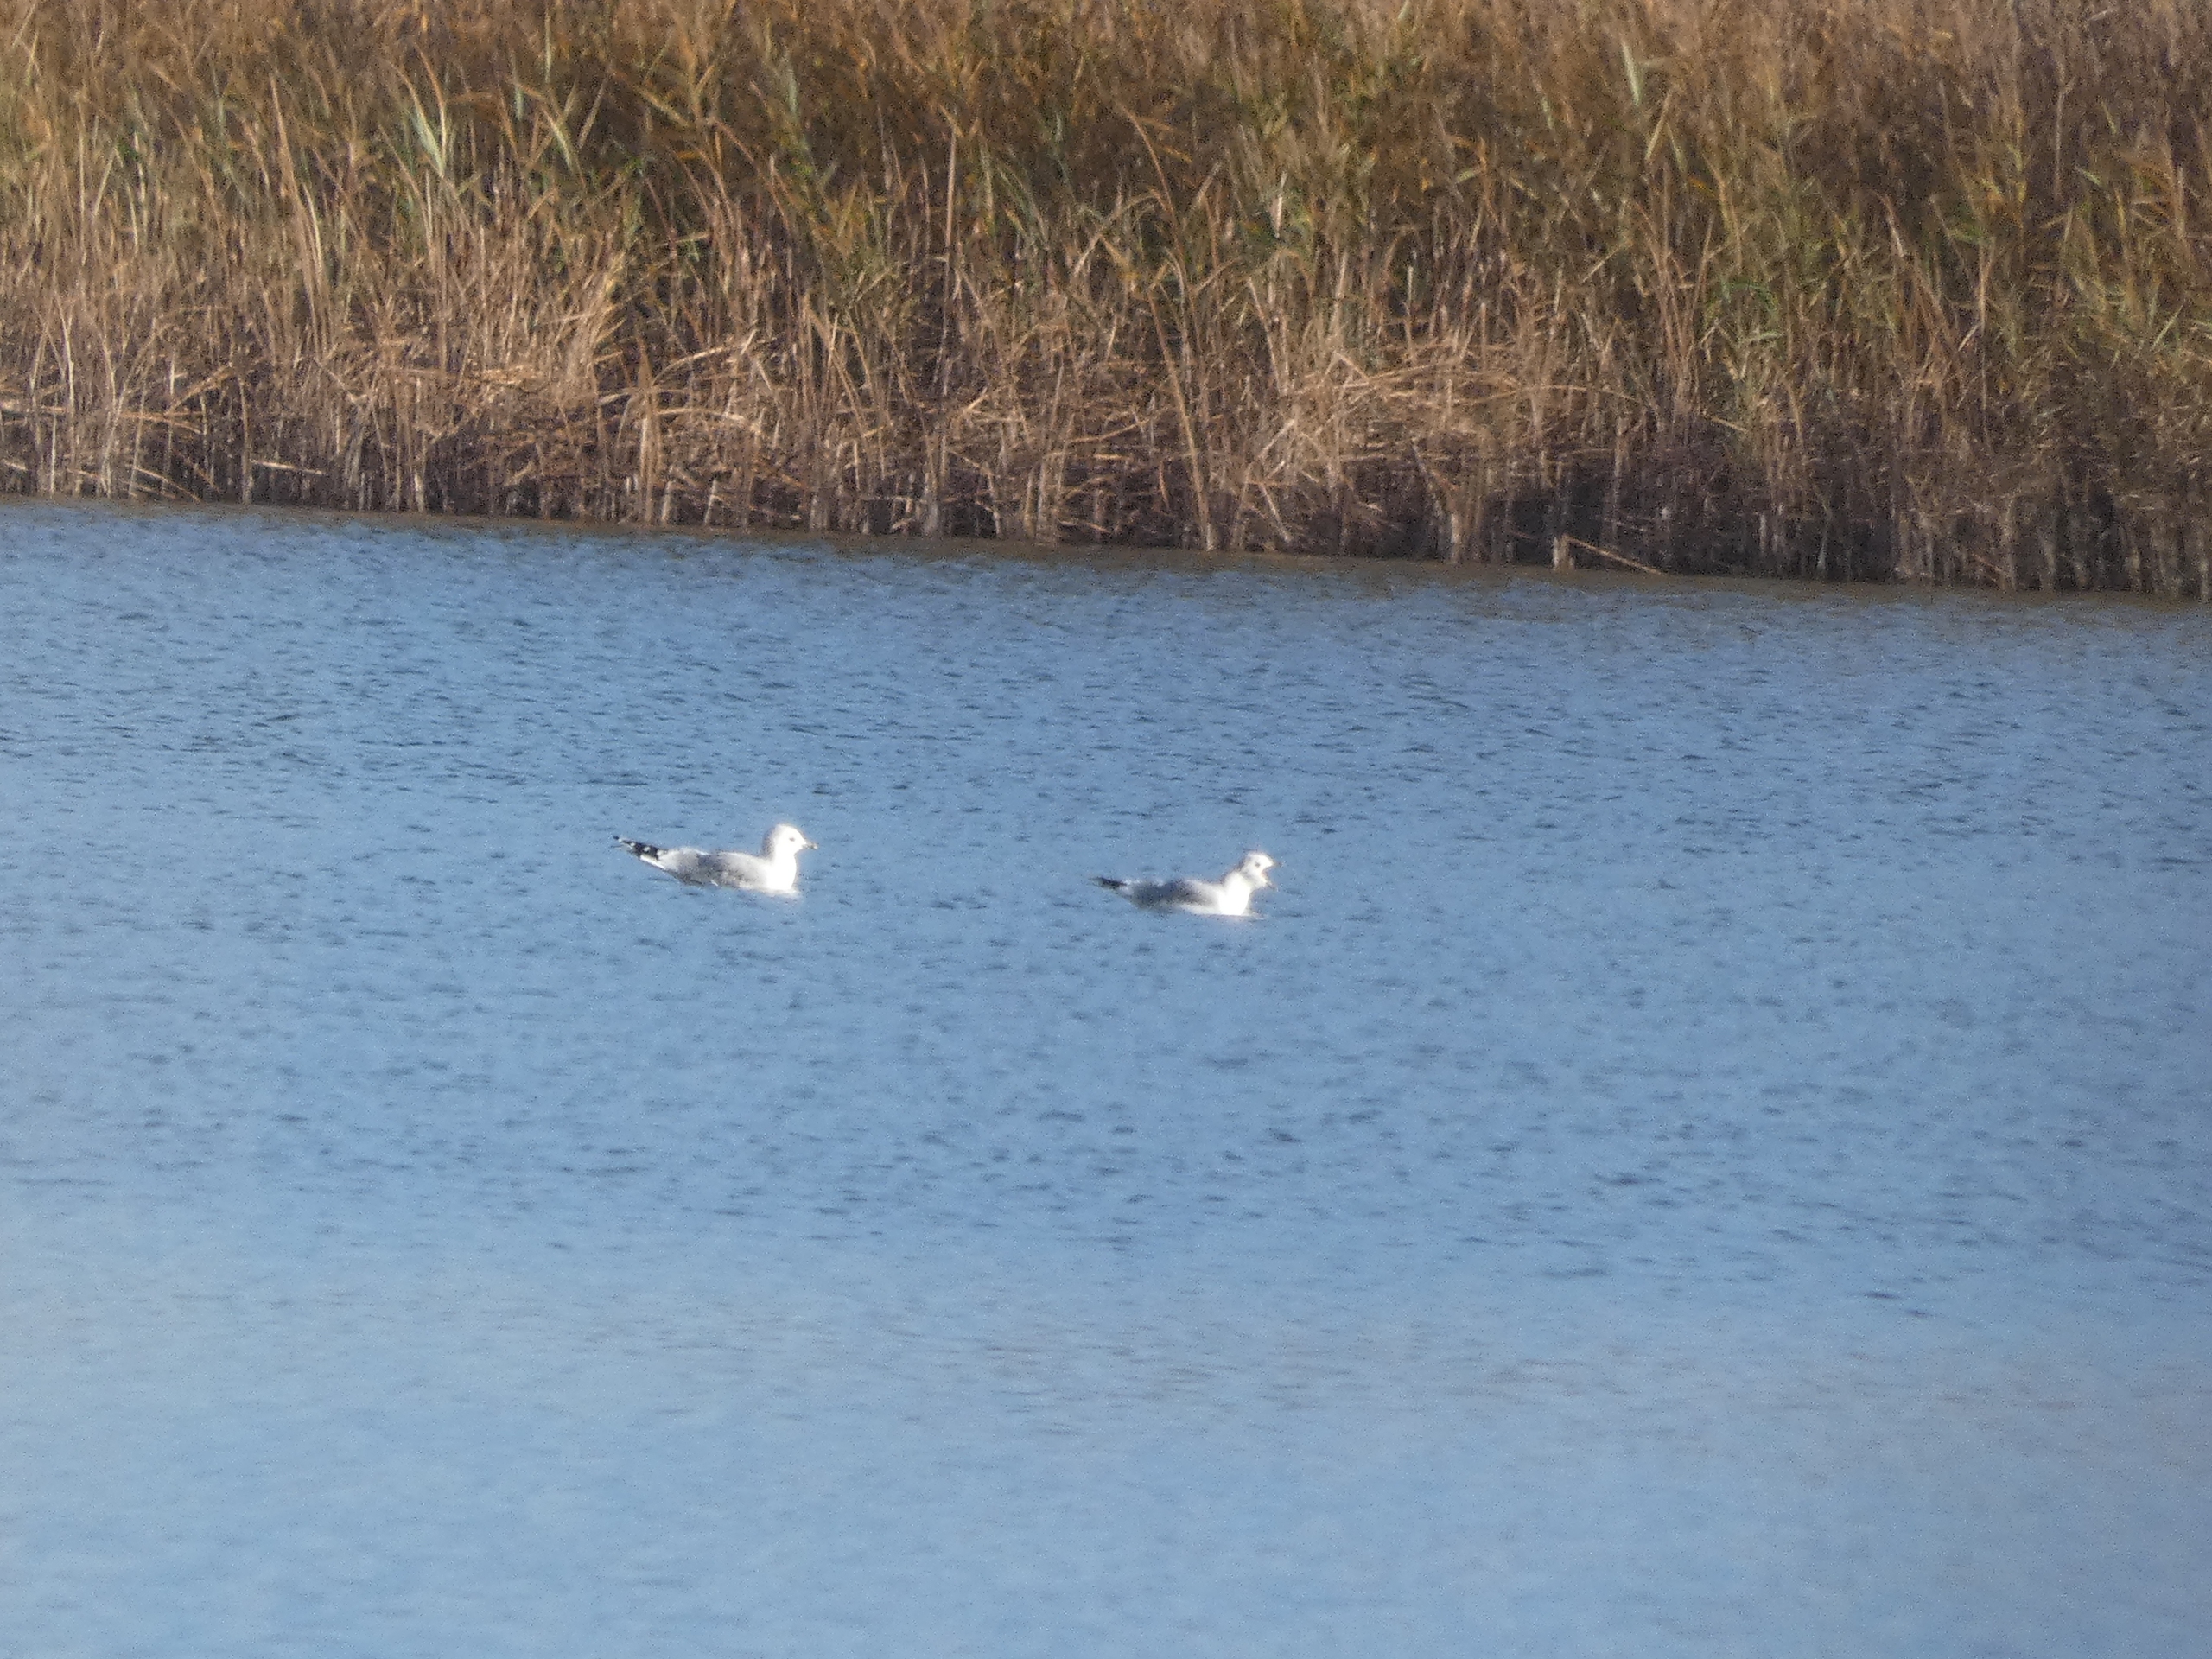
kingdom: Animalia
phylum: Chordata
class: Aves
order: Charadriiformes
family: Laridae
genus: Larus
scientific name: Larus canus
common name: Stormmåge
